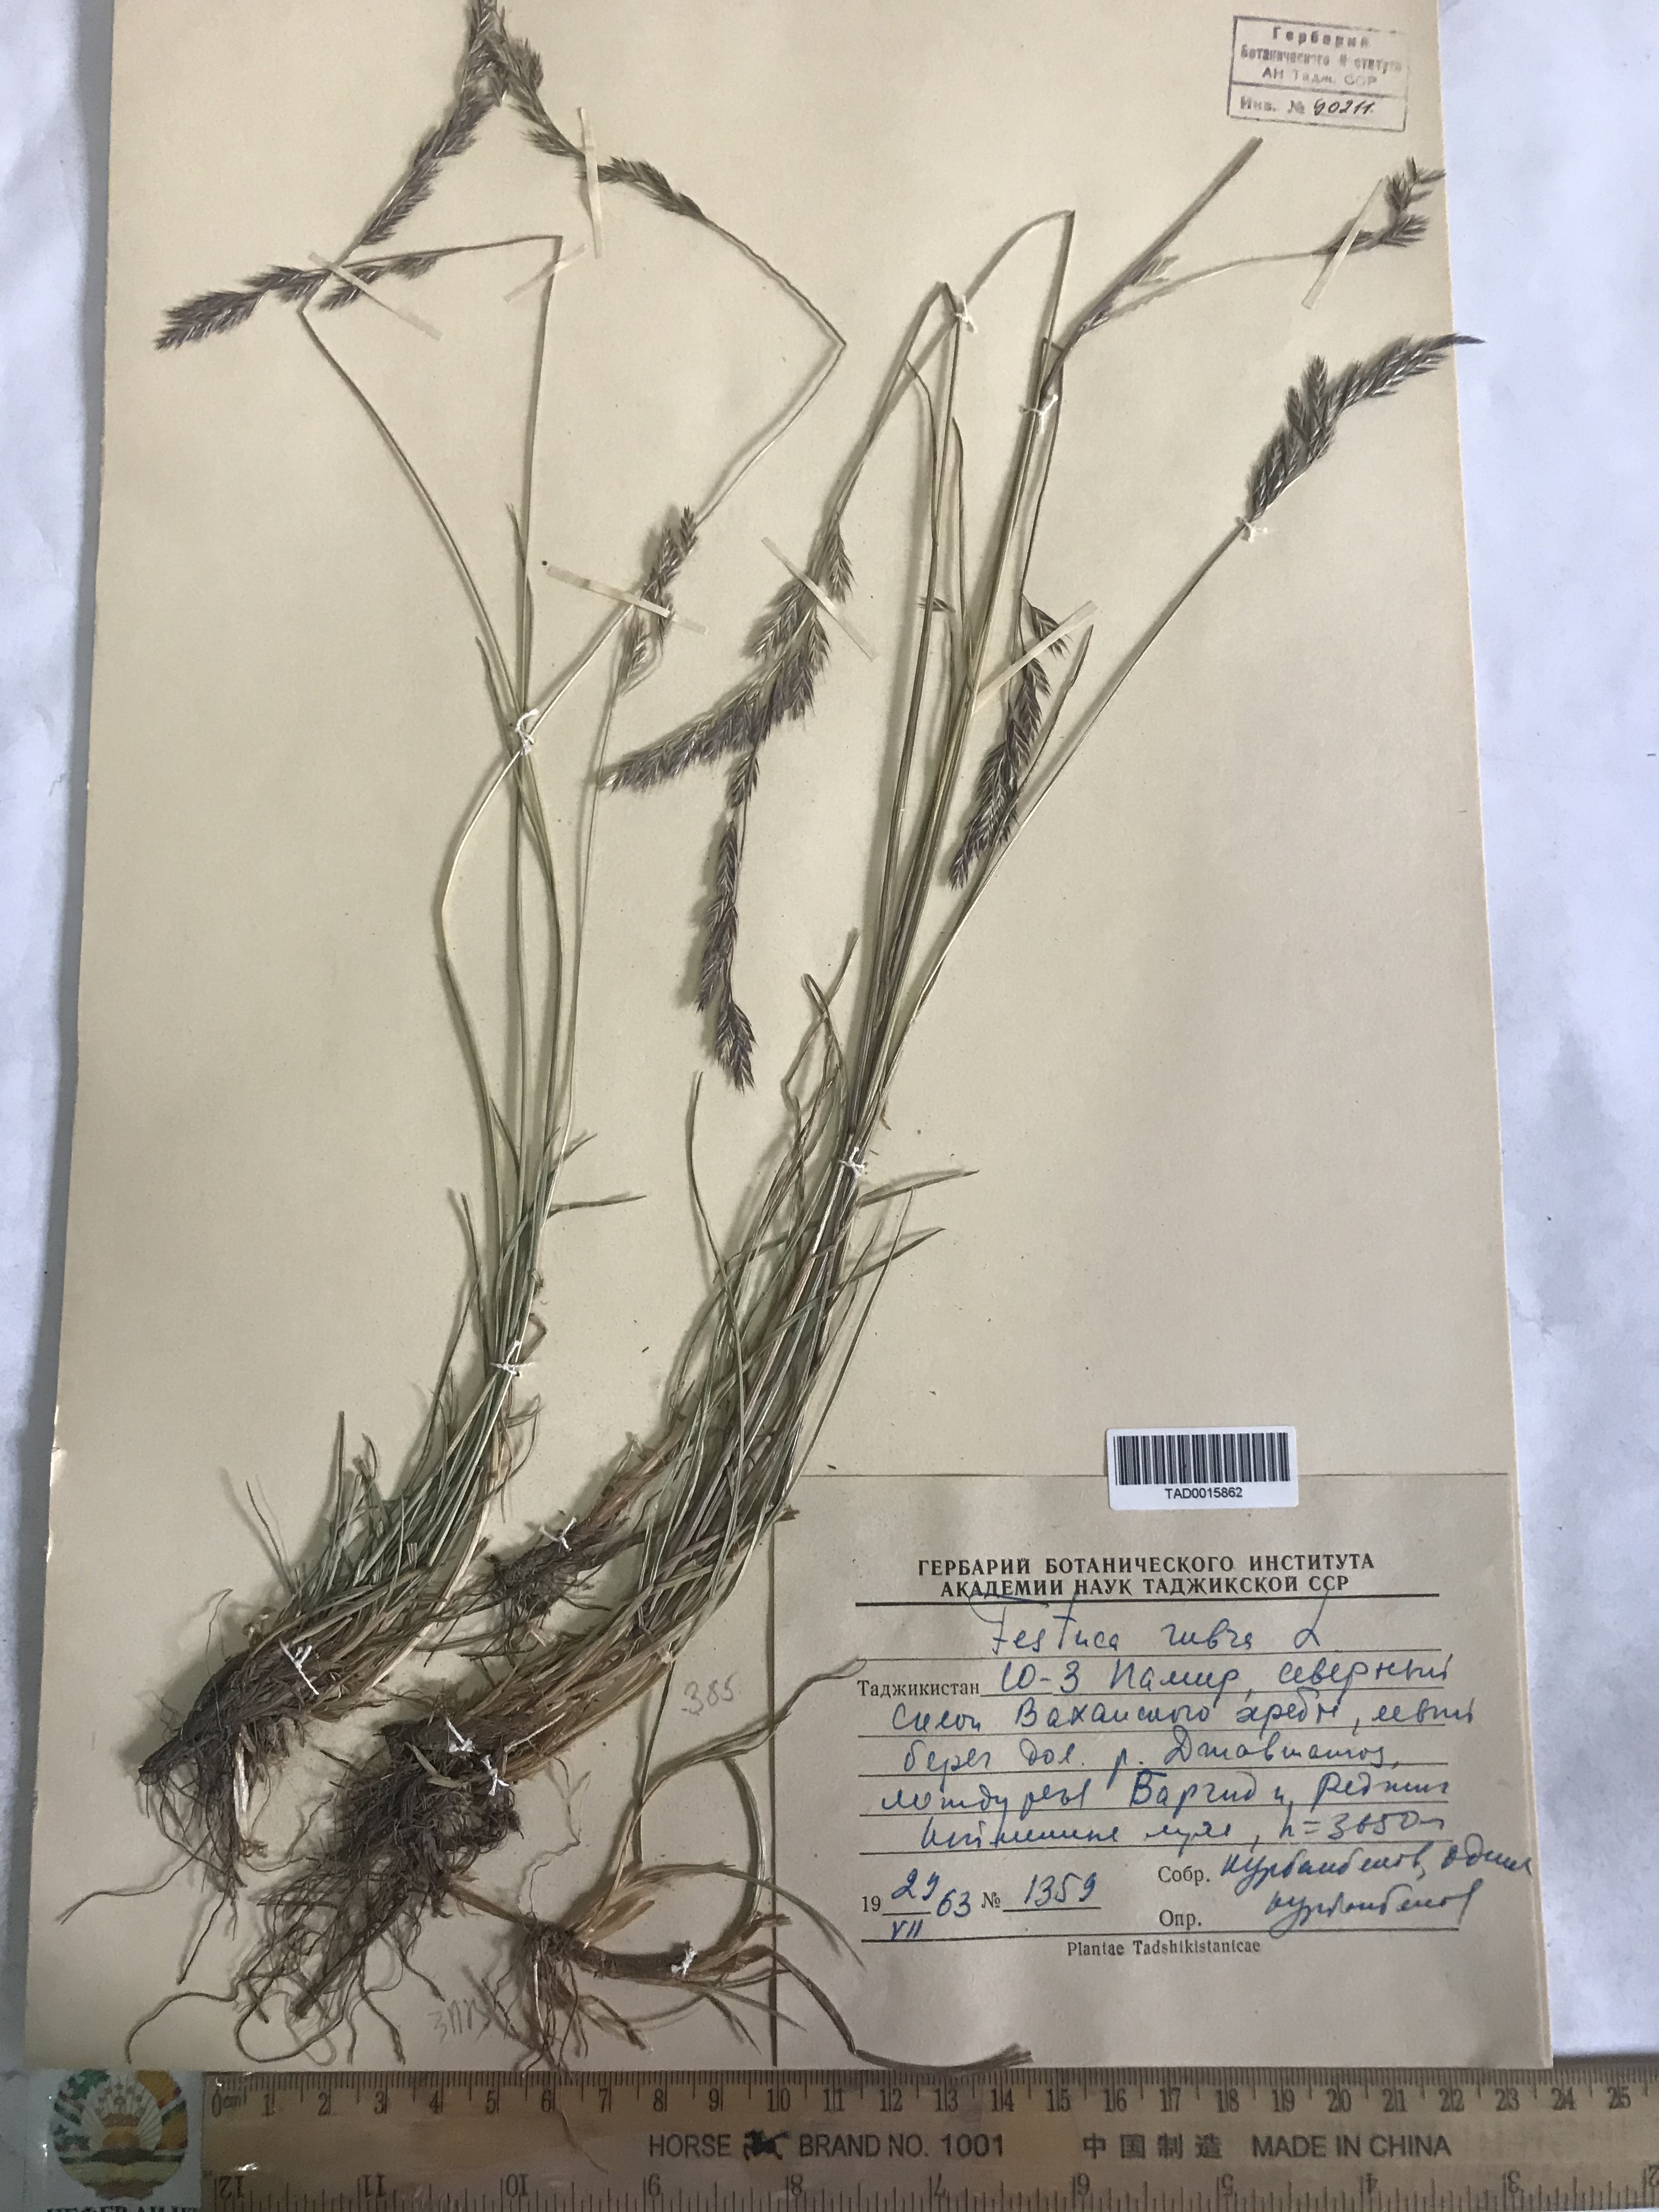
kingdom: Plantae
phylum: Tracheophyta
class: Liliopsida
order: Poales
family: Poaceae
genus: Festuca
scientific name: Festuca rubra
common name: Red fescue
